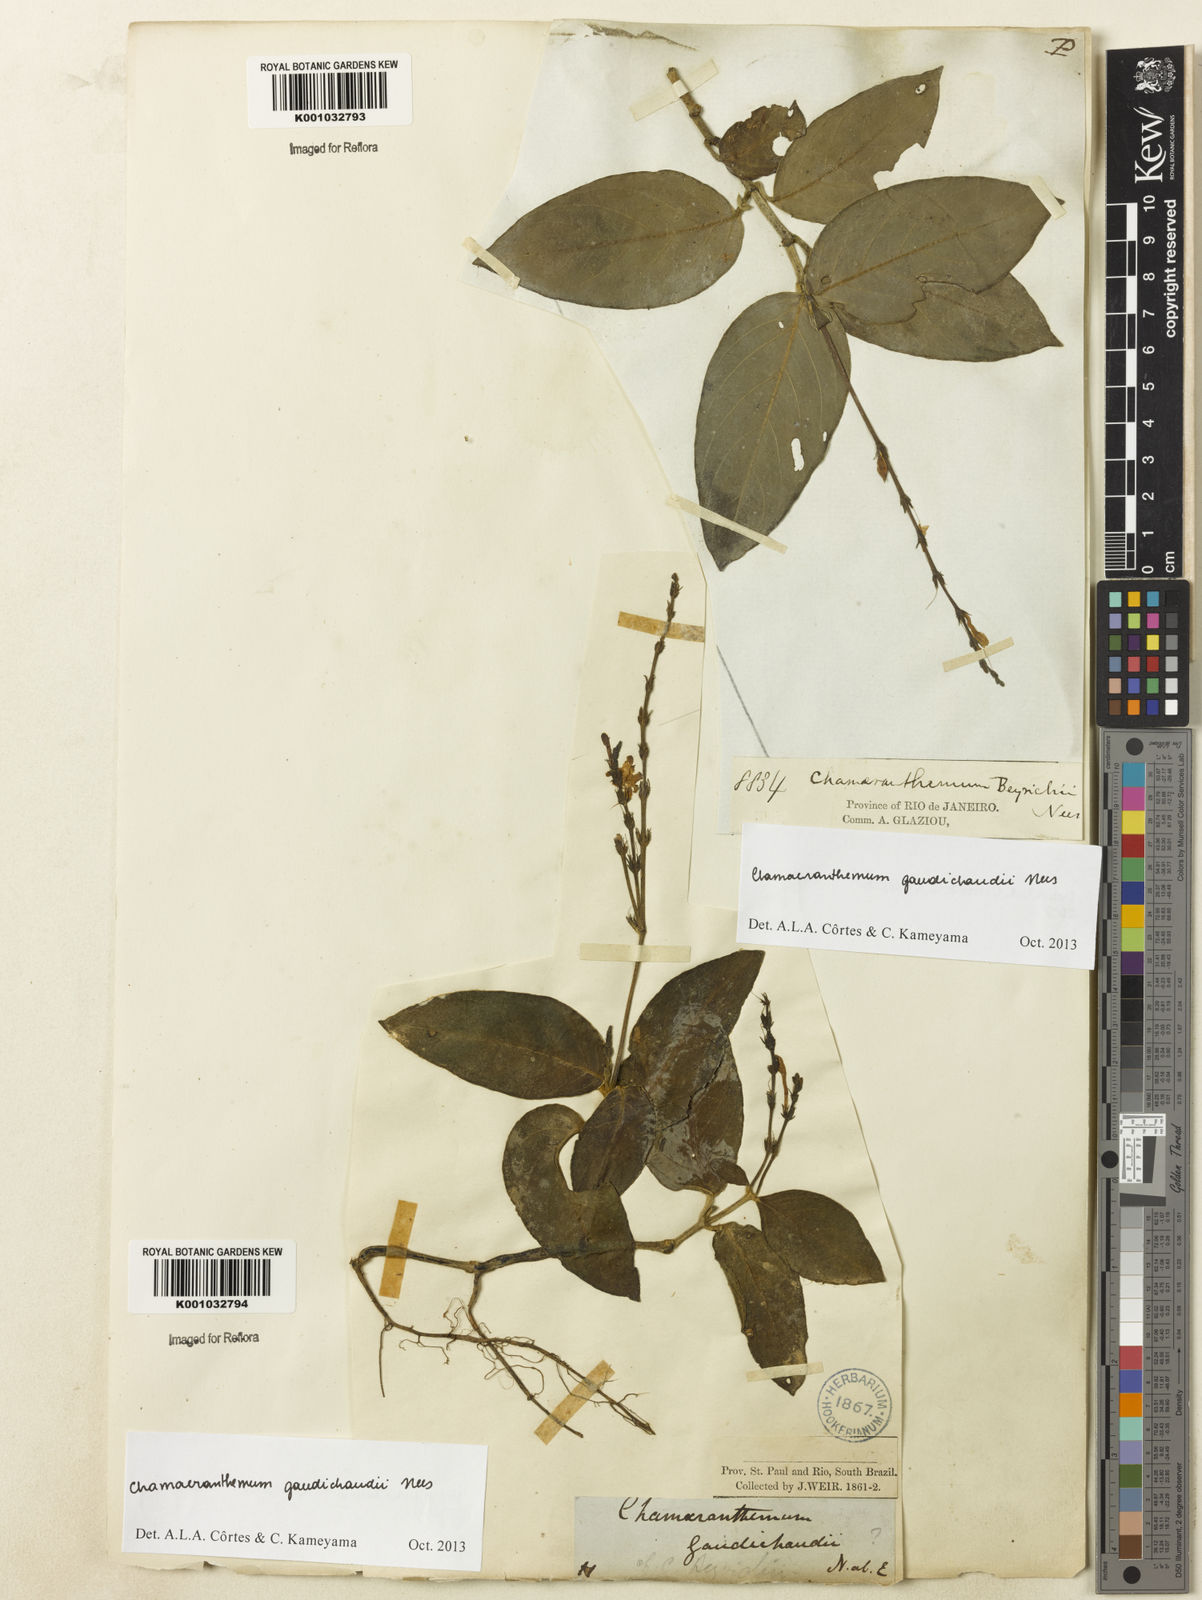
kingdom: Plantae
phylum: Tracheophyta
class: Magnoliopsida
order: Lamiales
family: Acanthaceae
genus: Chamaeranthemum
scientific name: Chamaeranthemum beyrichii
